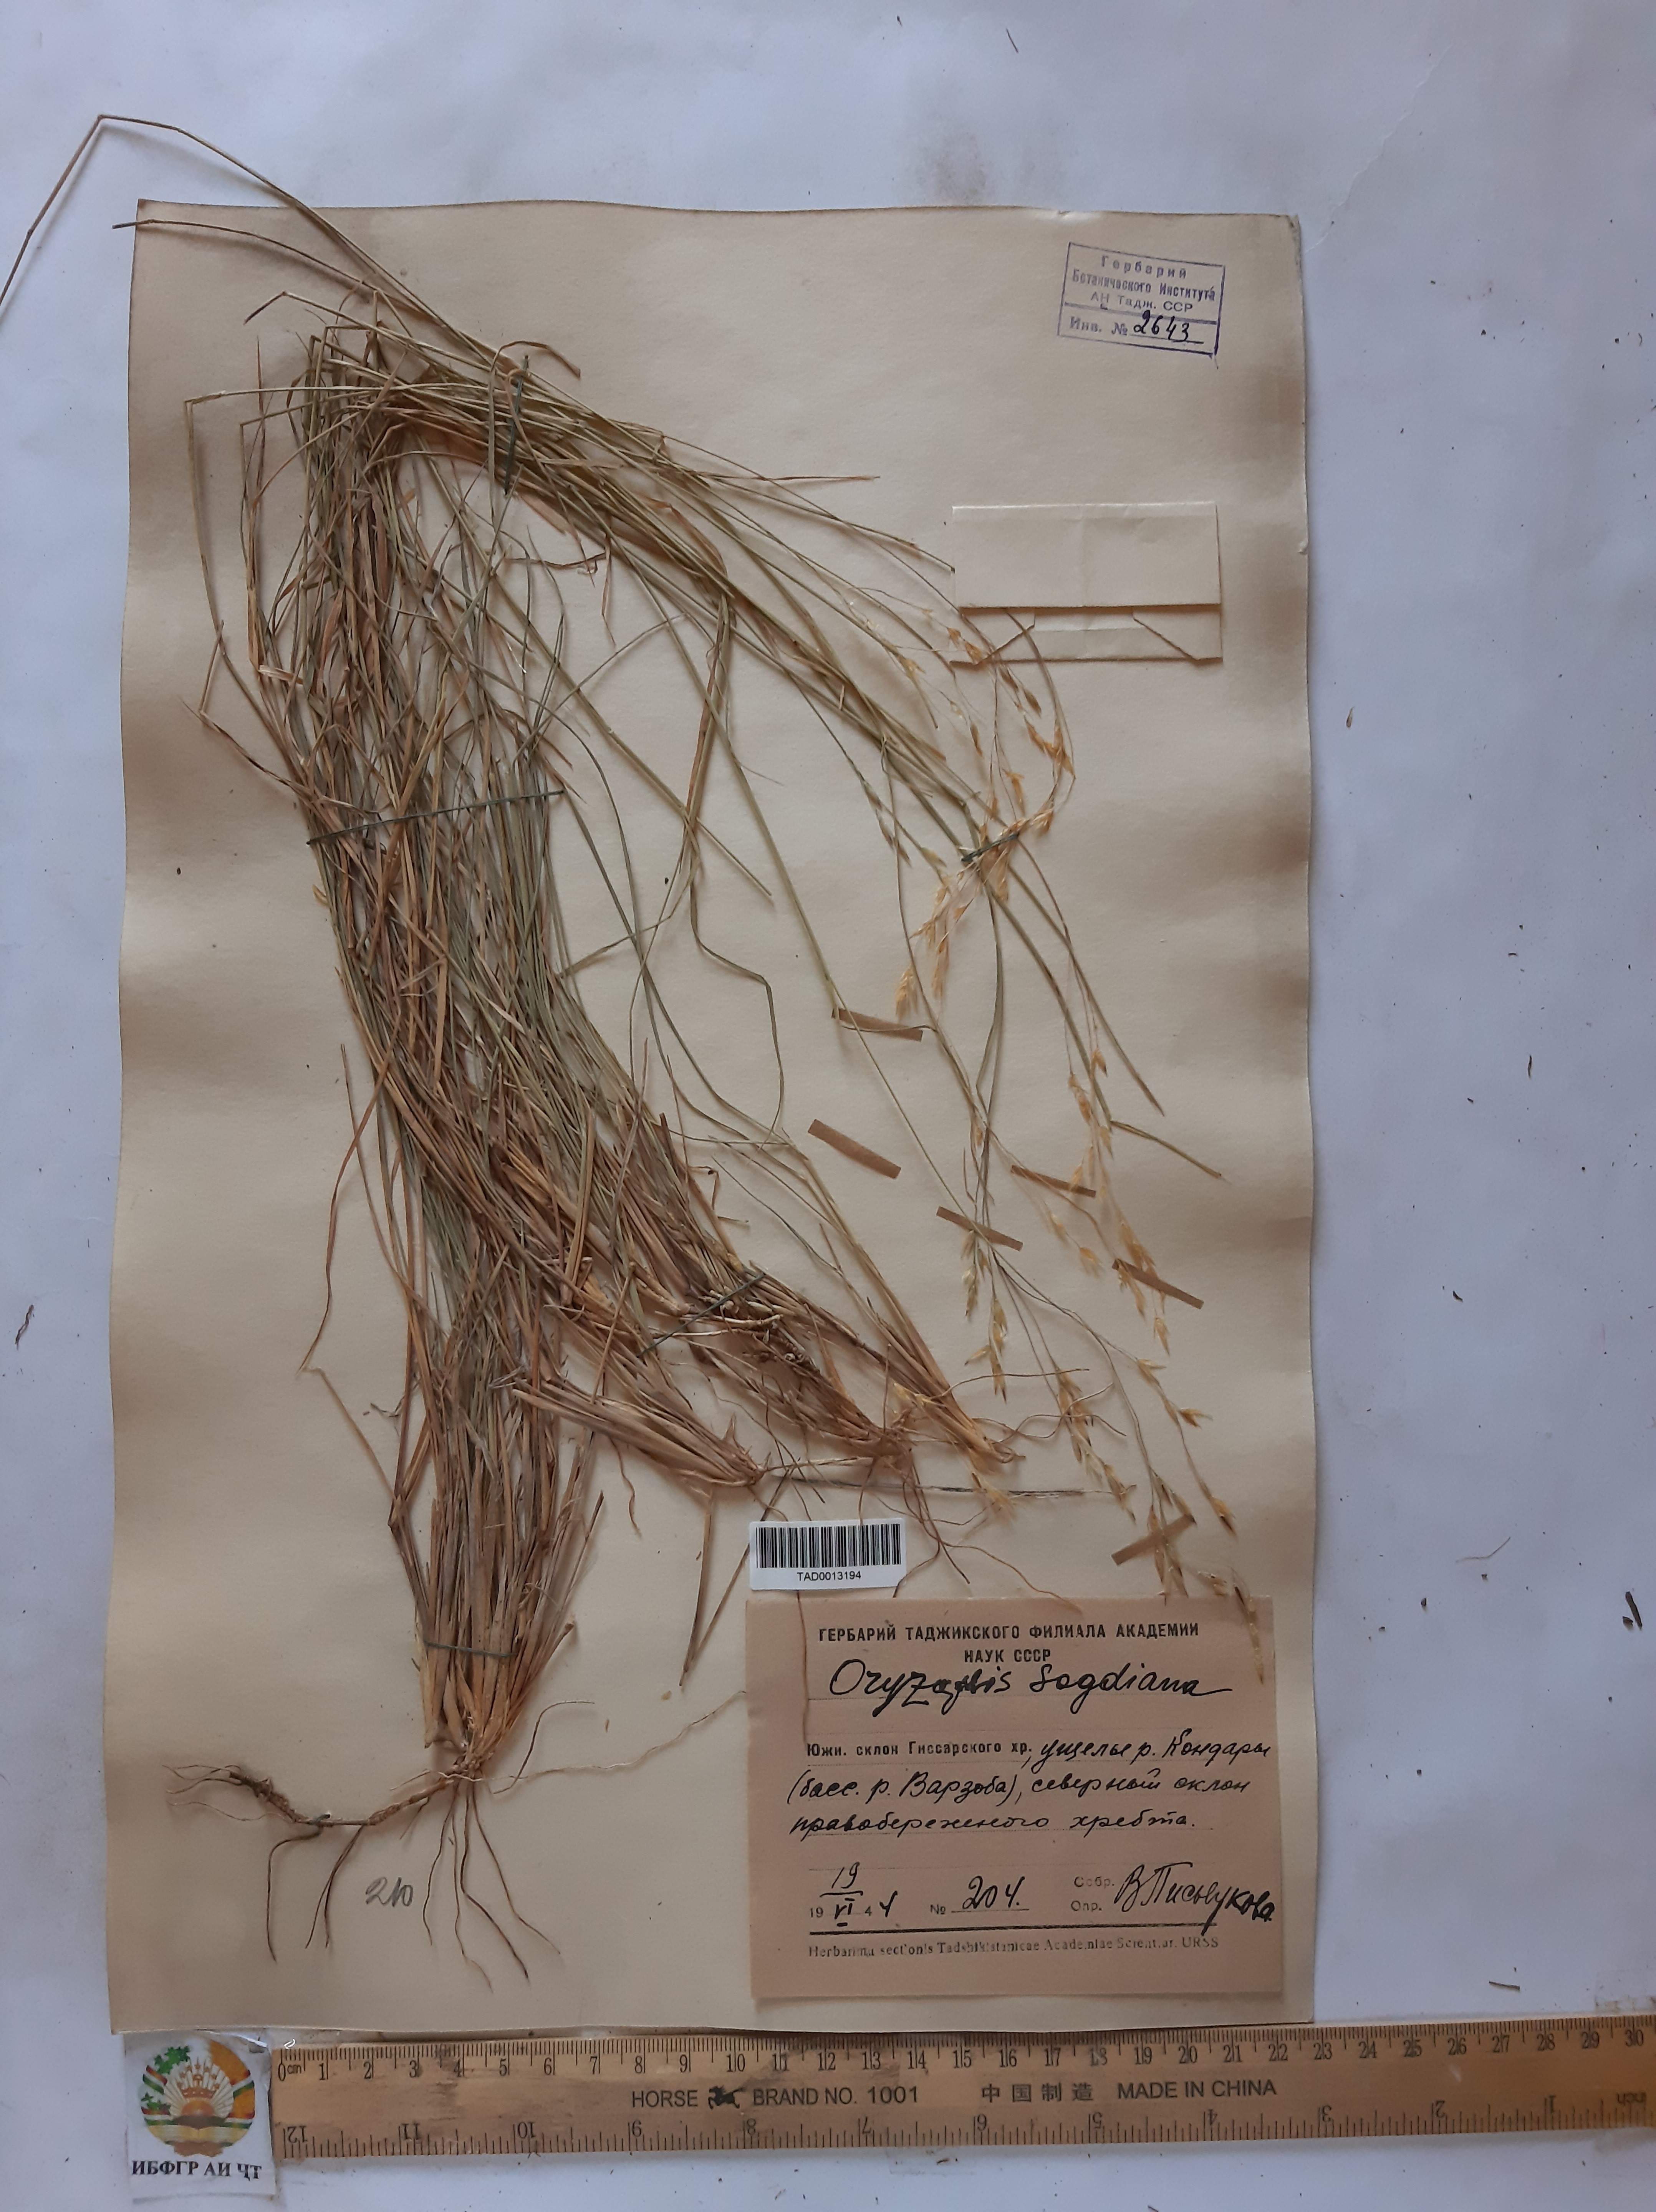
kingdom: Plantae
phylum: Tracheophyta
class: Liliopsida
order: Poales
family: Poaceae
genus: Piptatherum
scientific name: Piptatherum sogdianum
